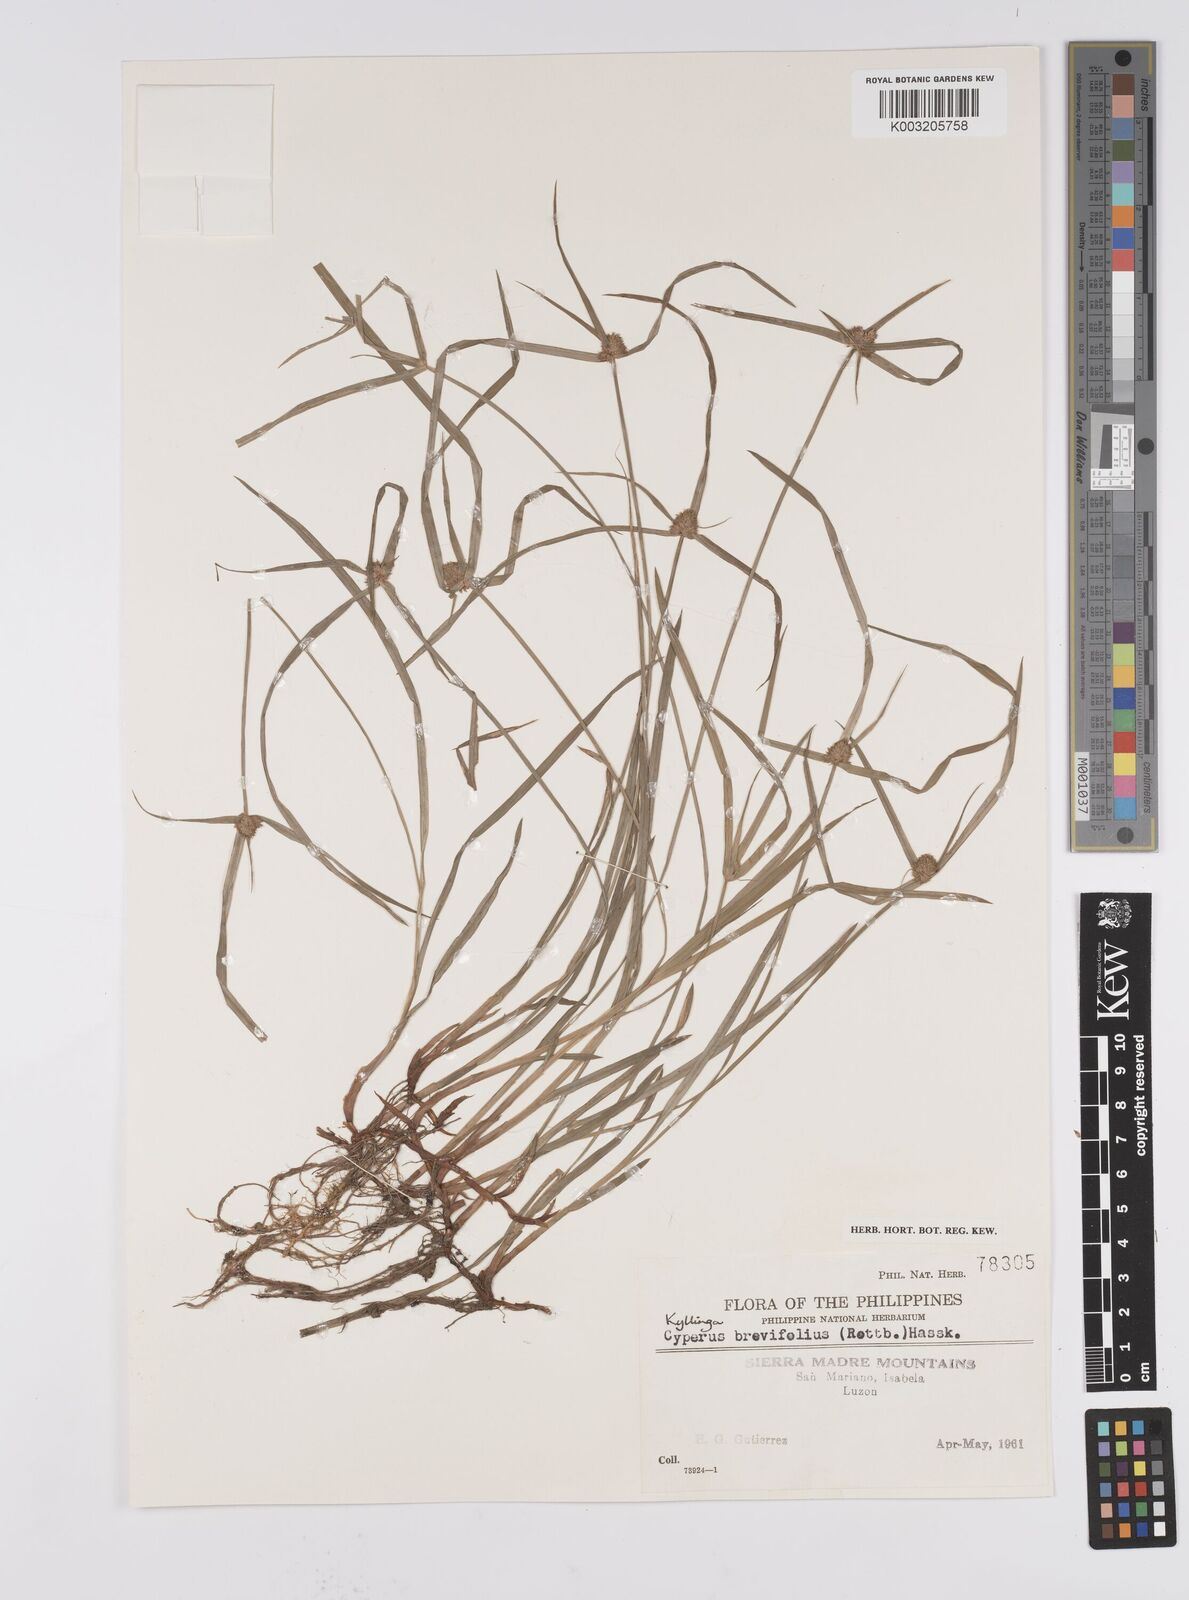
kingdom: Plantae
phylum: Tracheophyta
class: Liliopsida
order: Poales
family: Cyperaceae
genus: Cyperus
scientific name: Cyperus brevifolius
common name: Globe kyllinga
